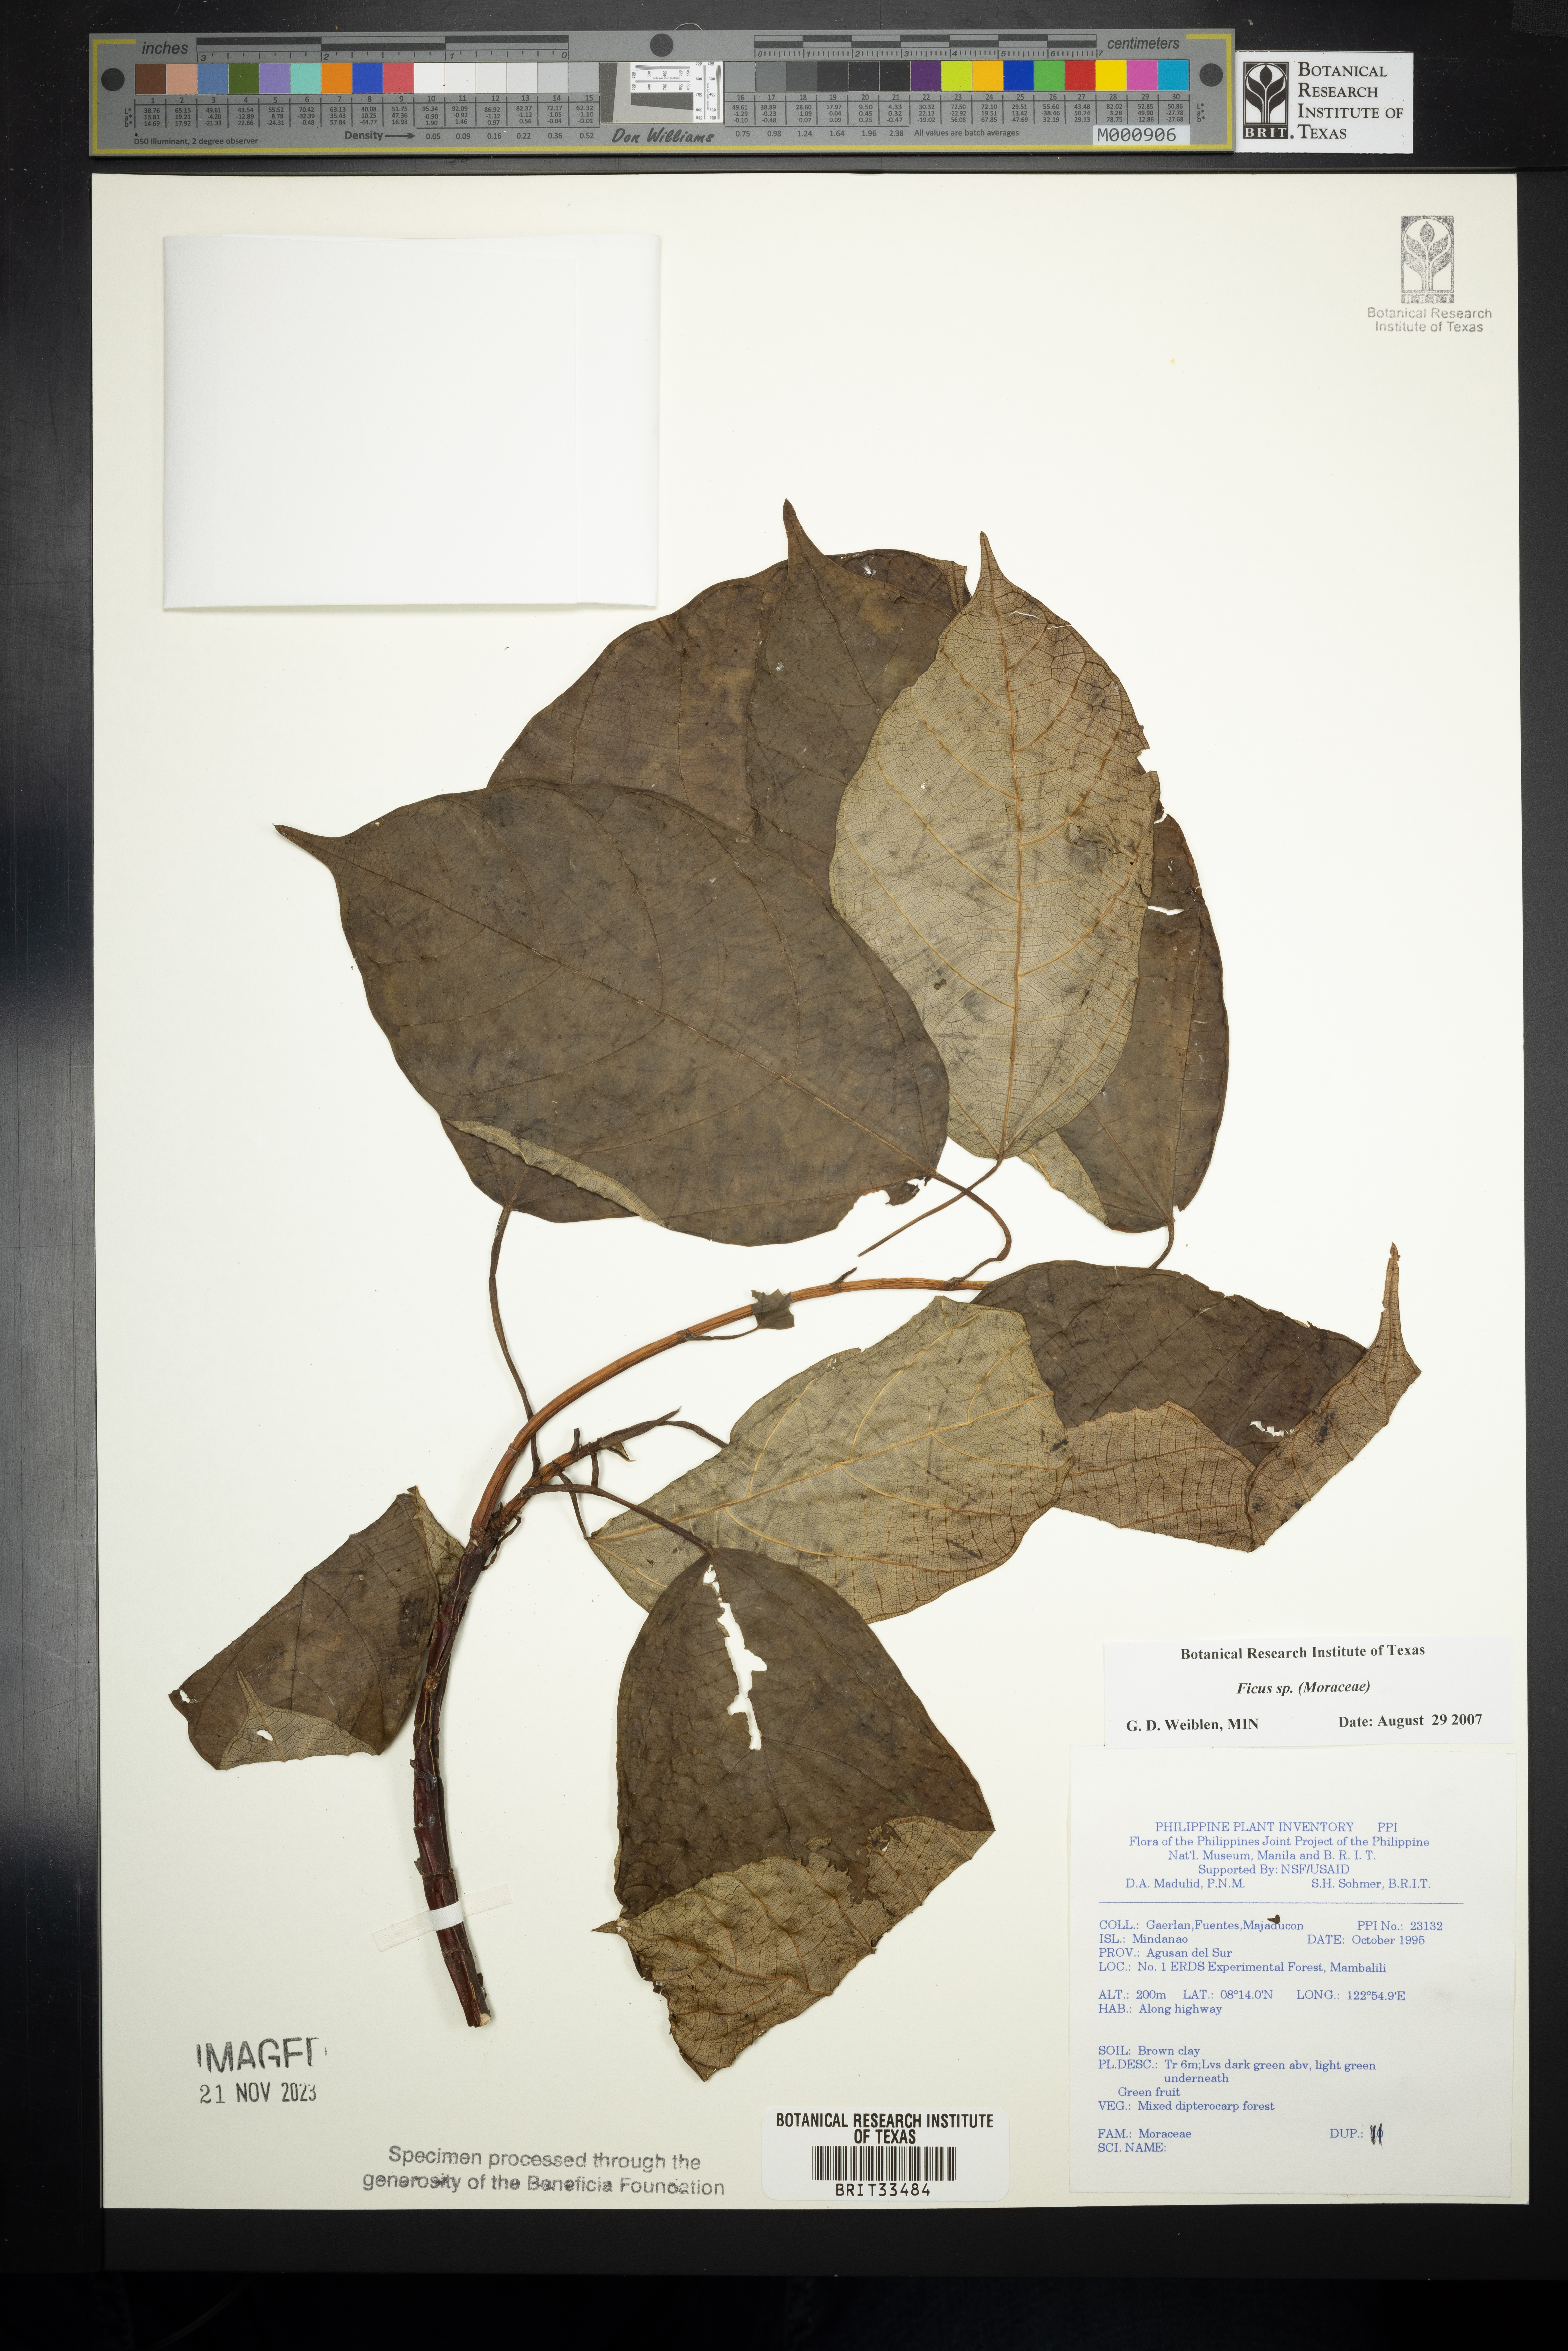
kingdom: Plantae
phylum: Tracheophyta
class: Magnoliopsida
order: Rosales
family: Moraceae
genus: Ficus
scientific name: Ficus
